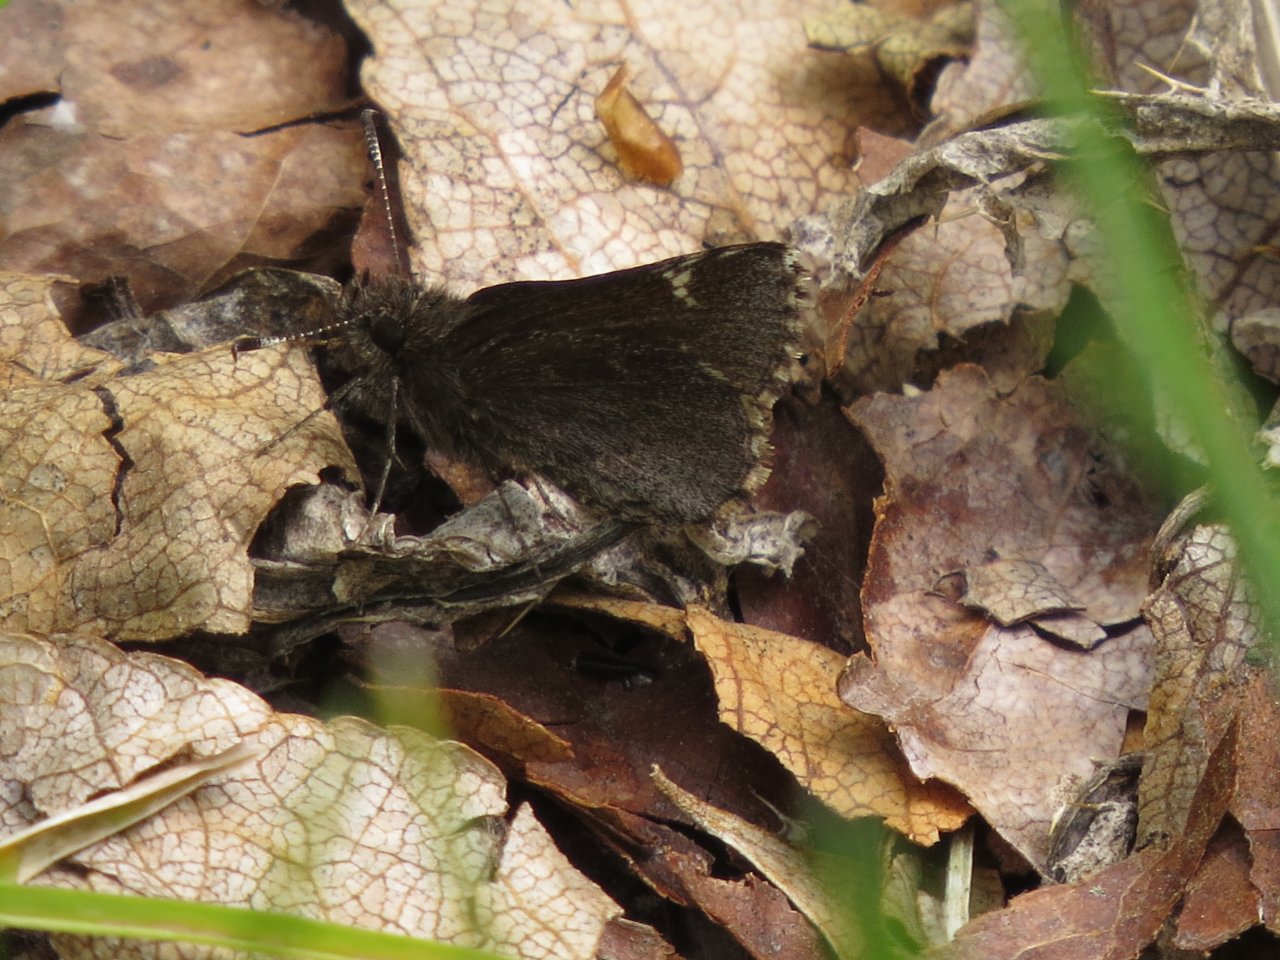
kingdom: Animalia
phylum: Arthropoda
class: Insecta
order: Lepidoptera
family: Hesperiidae
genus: Mastor
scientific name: Mastor vialis
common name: Common Roadside-Skipper
